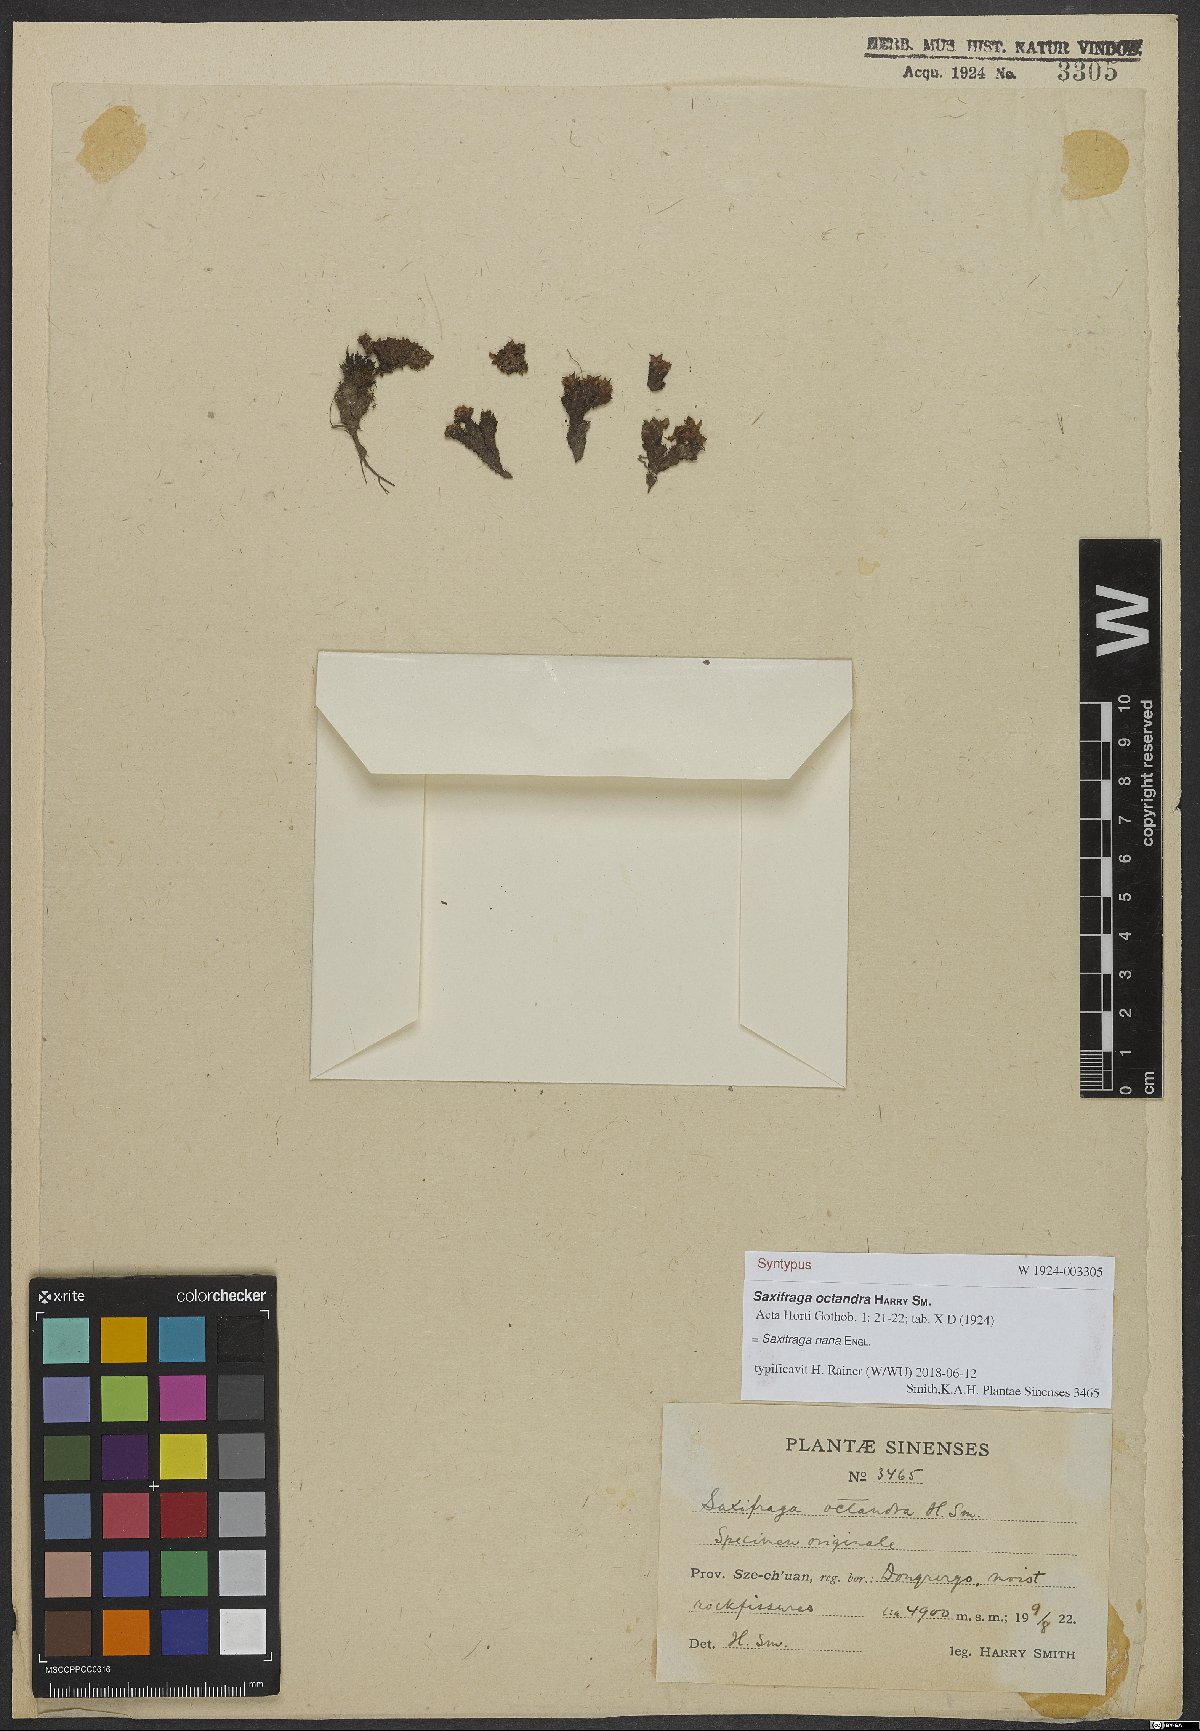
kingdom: Plantae
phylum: Tracheophyta
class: Magnoliopsida
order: Saxifragales
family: Saxifragaceae
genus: Saxifraga
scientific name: Saxifraga nana
